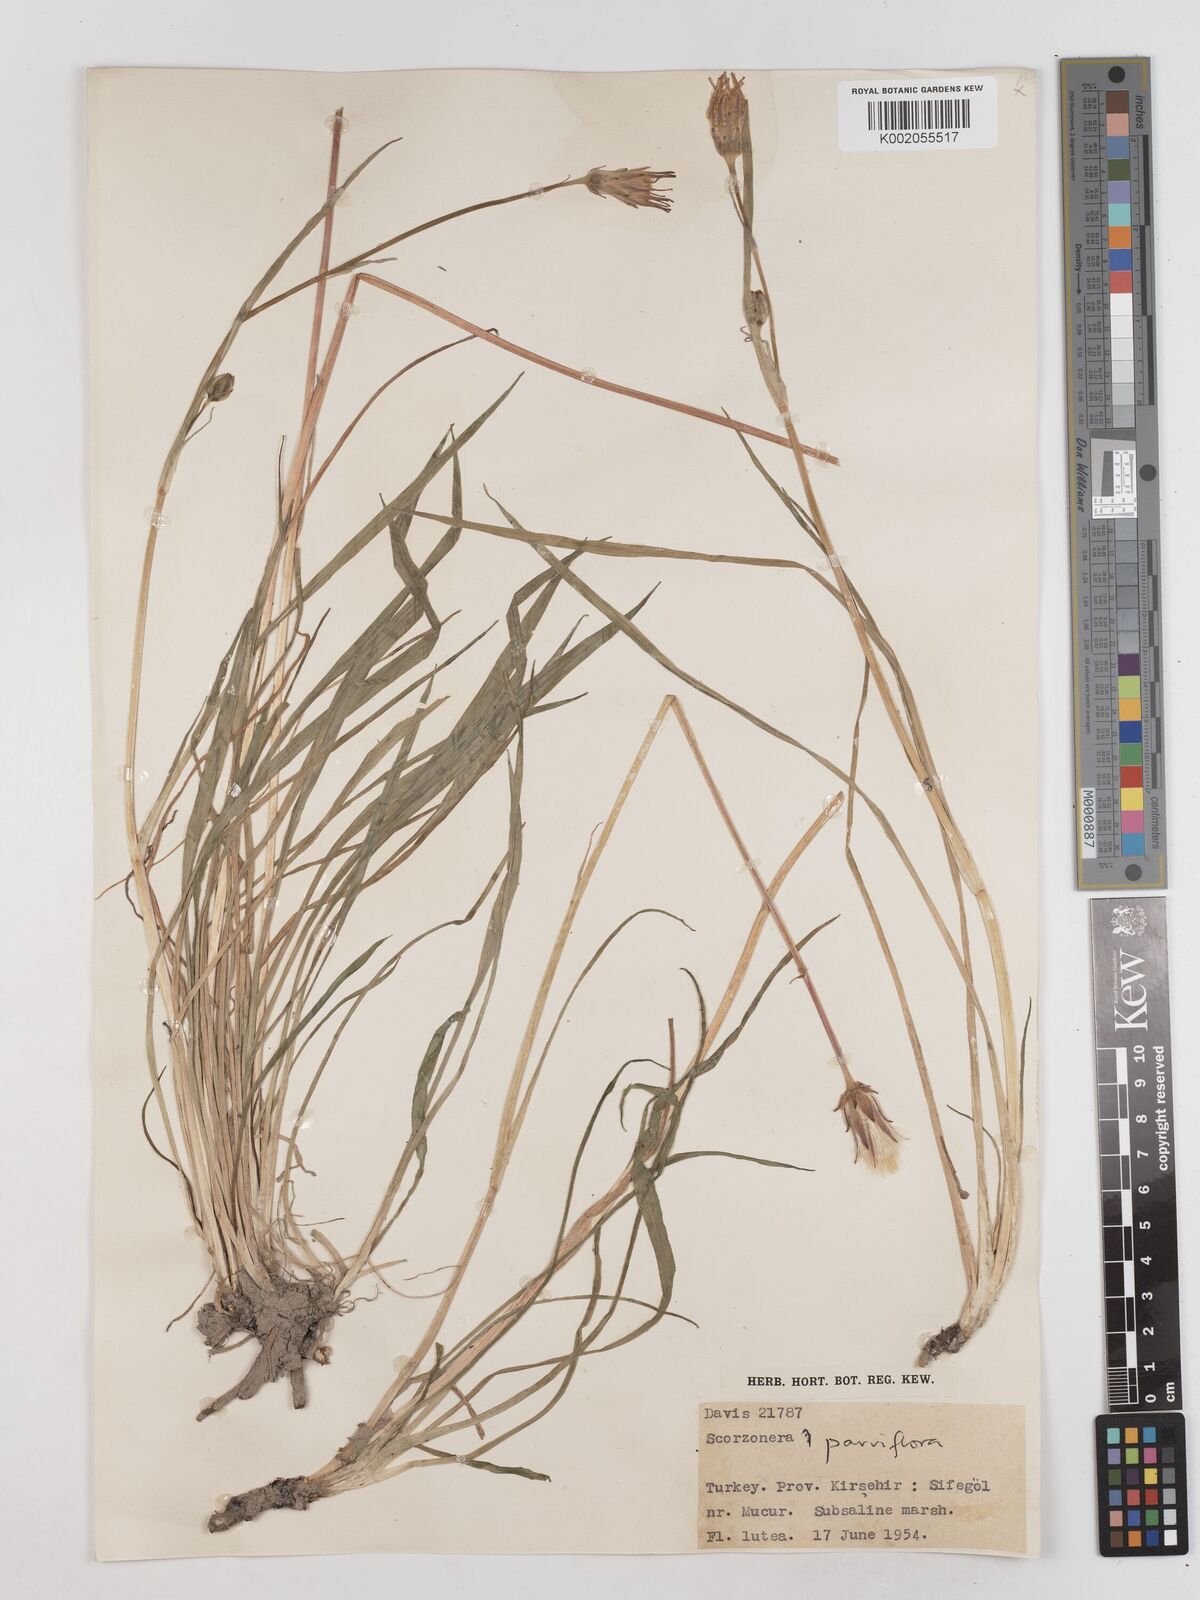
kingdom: Plantae
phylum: Tracheophyta
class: Magnoliopsida
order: Asterales
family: Asteraceae
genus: Scorzonera
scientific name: Scorzonera parviflora
